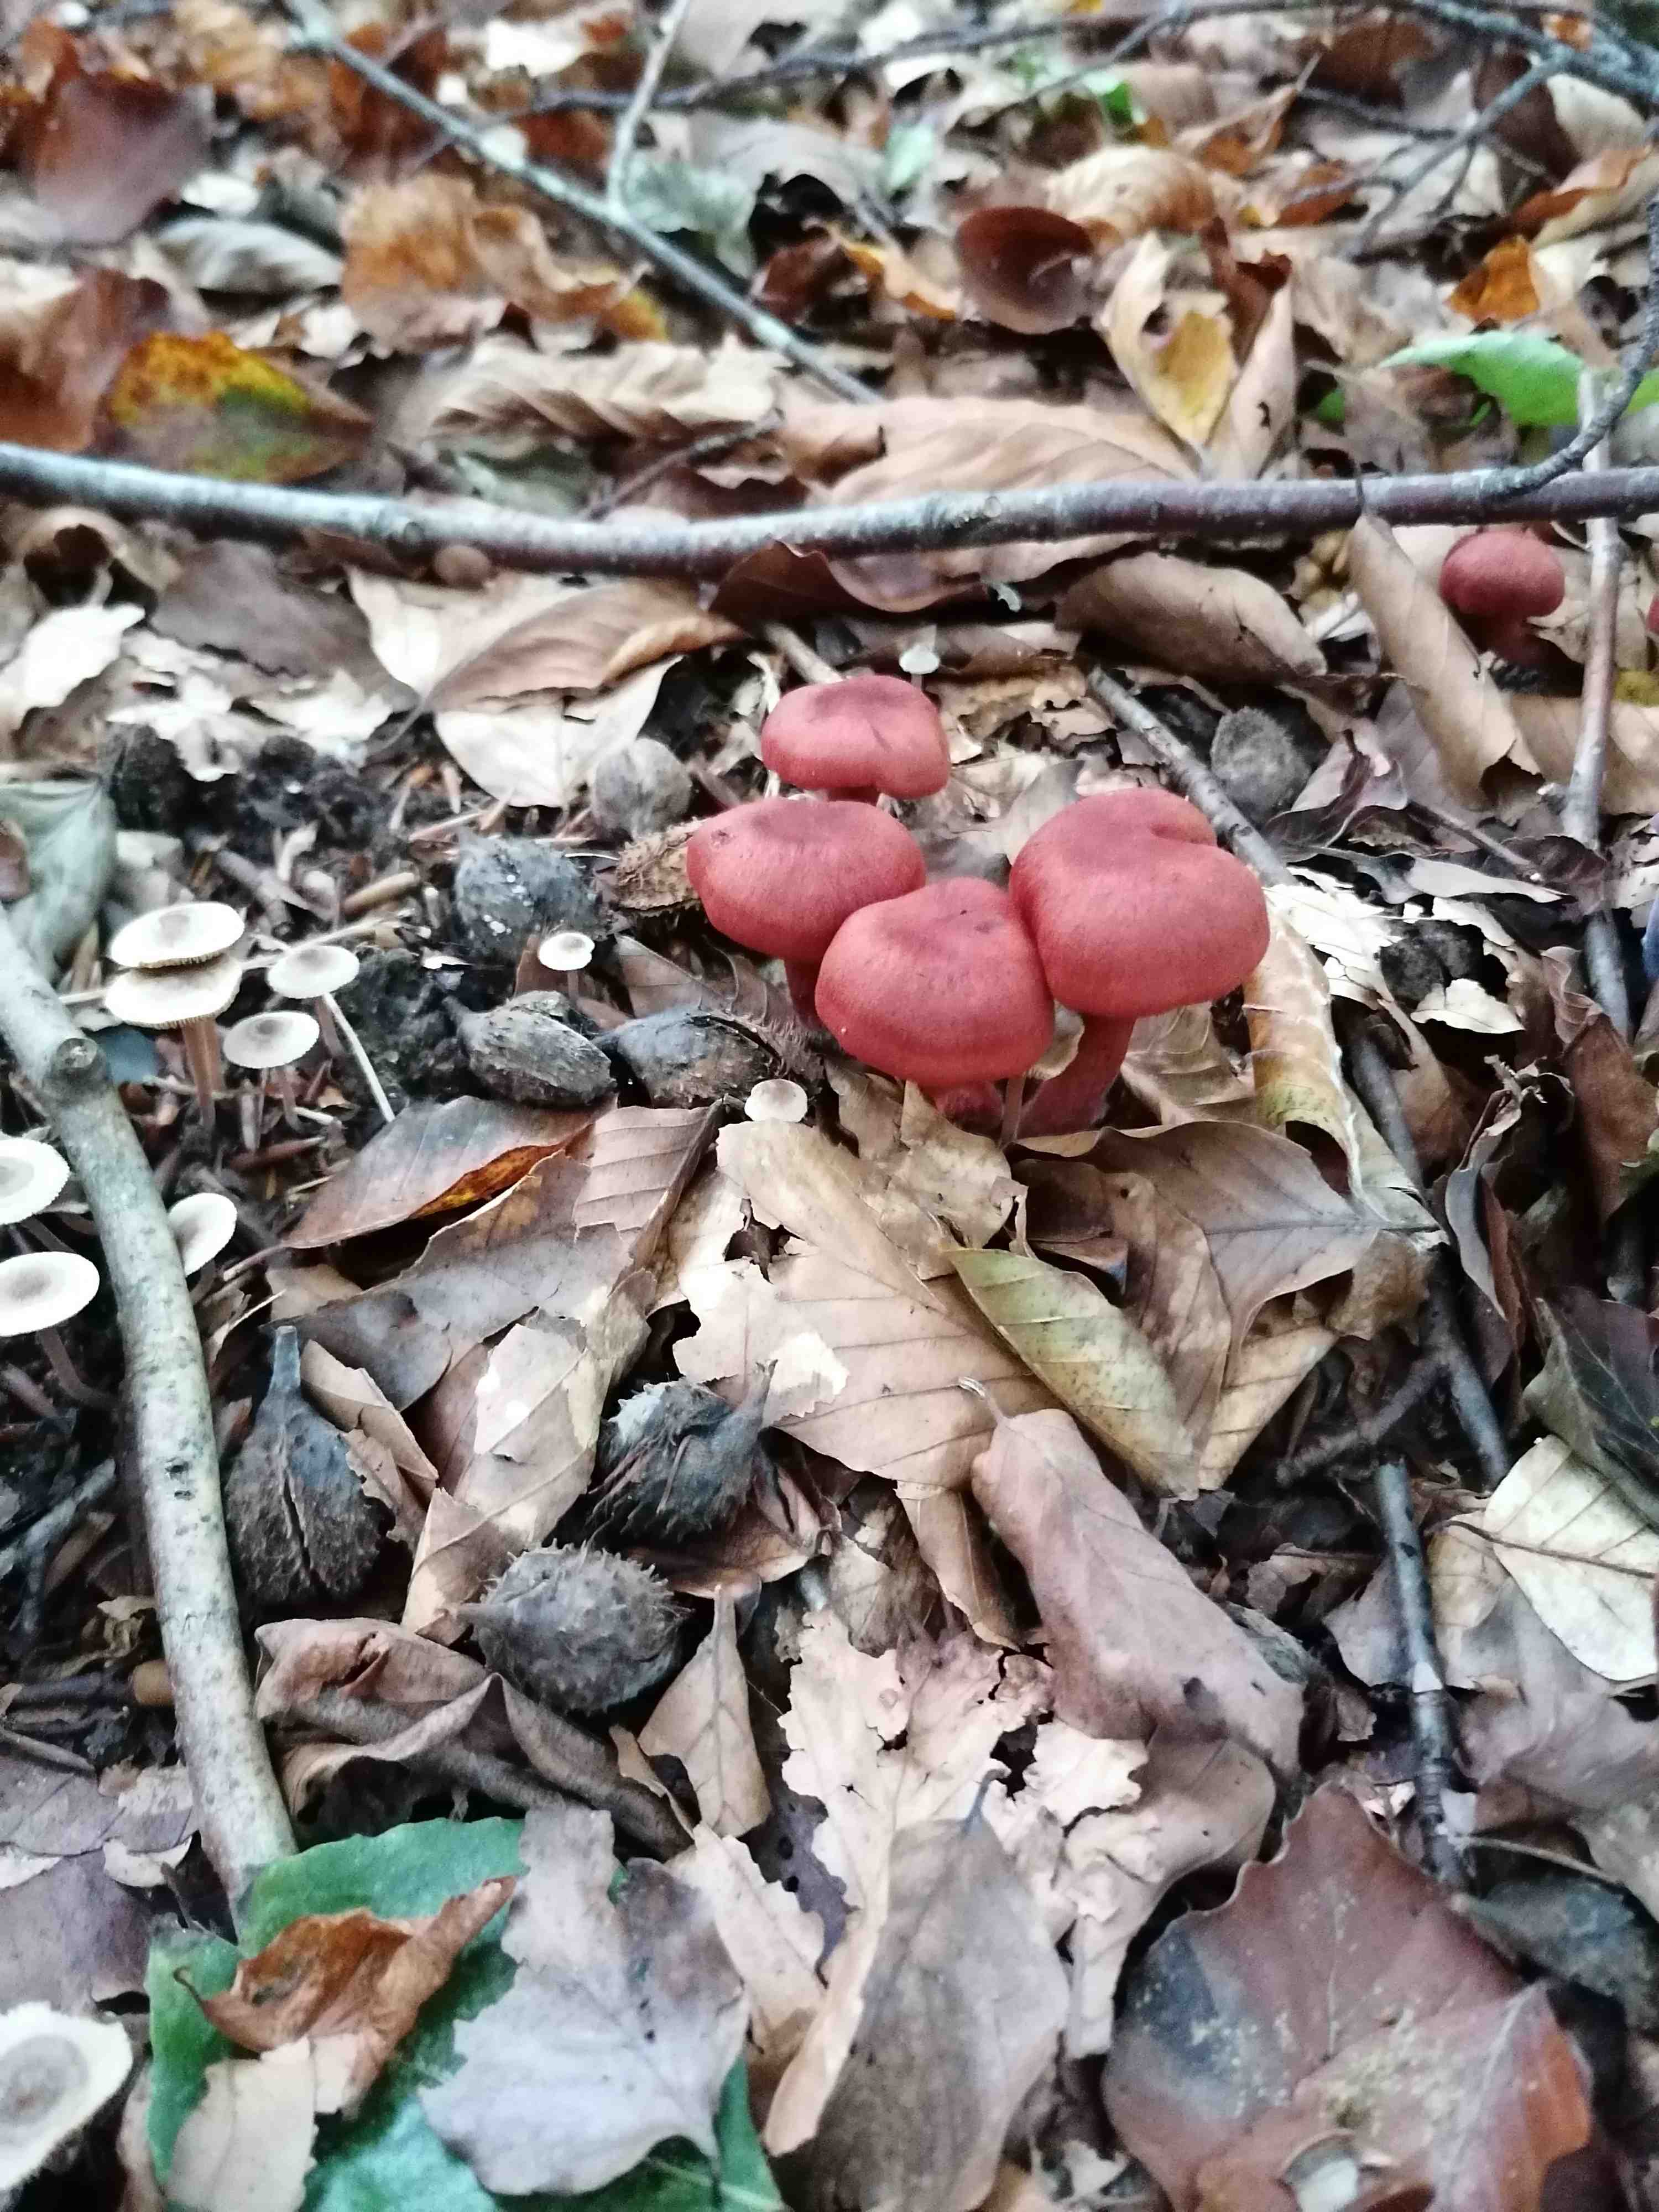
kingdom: Fungi
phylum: Basidiomycota
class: Agaricomycetes
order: Agaricales
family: Cortinariaceae
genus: Cortinarius
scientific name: Cortinarius
